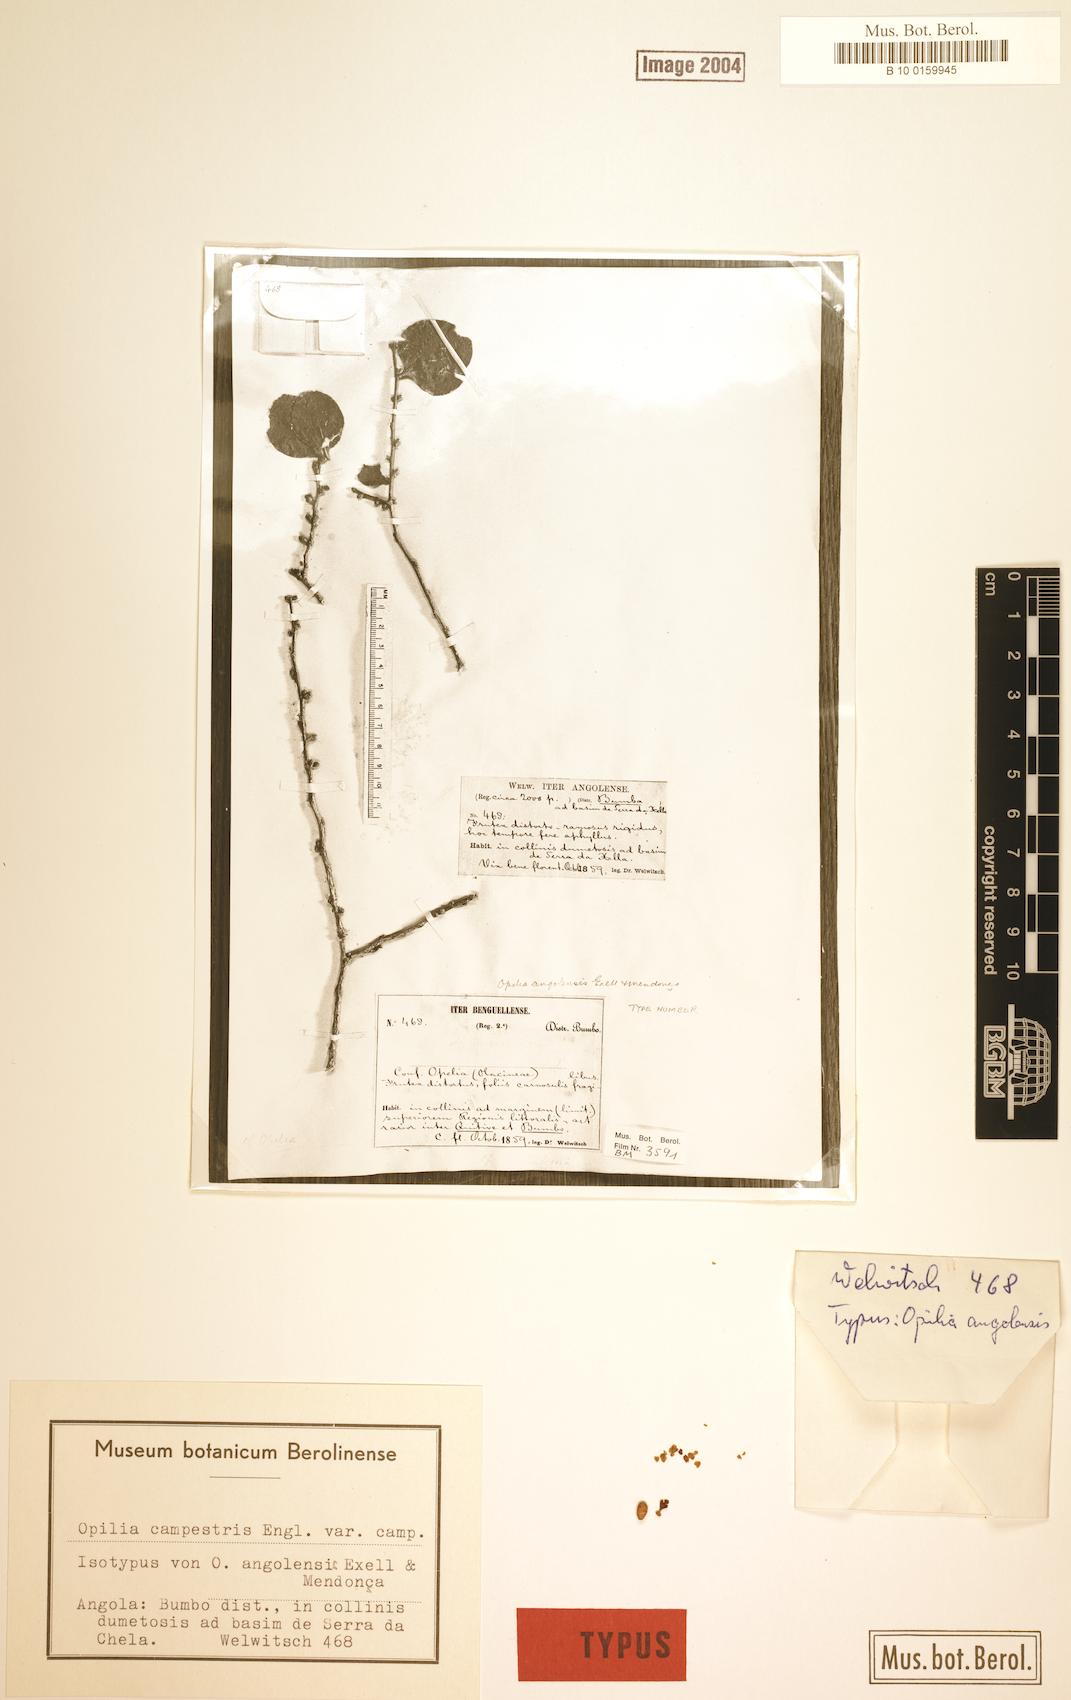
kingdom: Plantae
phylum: Tracheophyta
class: Magnoliopsida
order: Santalales
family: Opiliaceae
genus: Opilia
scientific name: Opilia campestris
